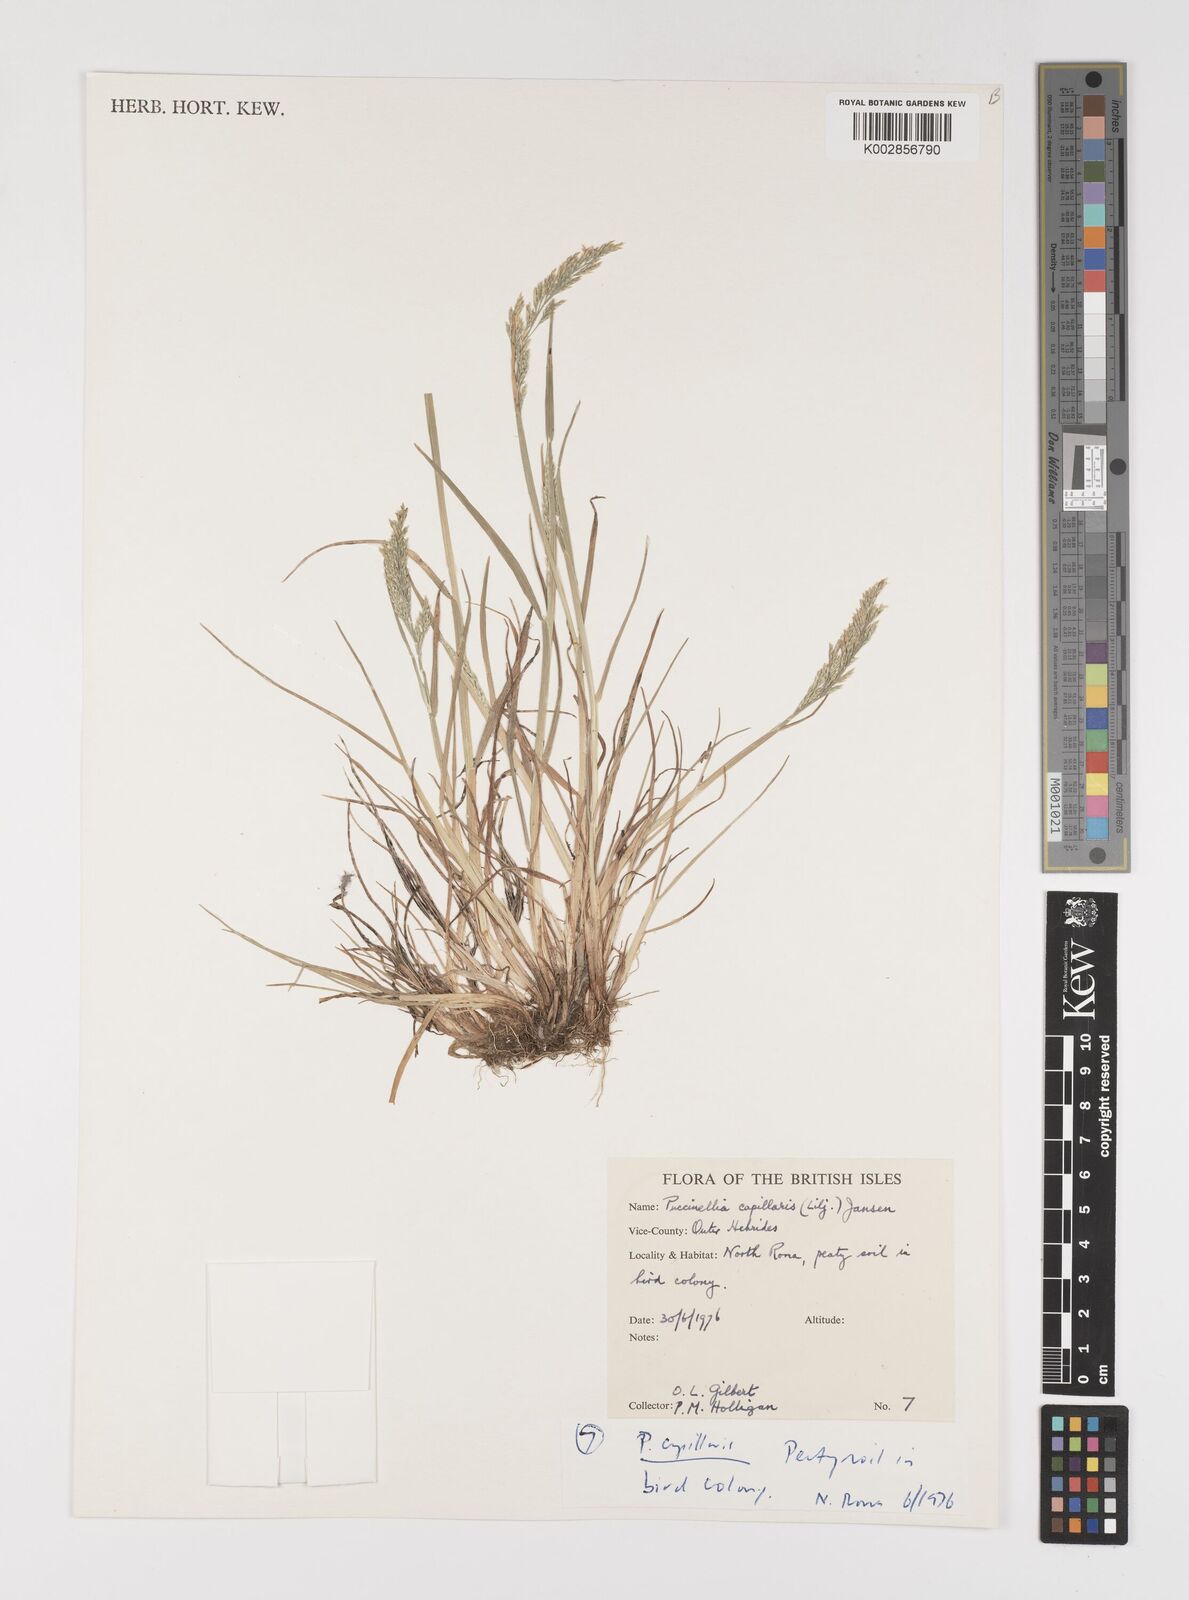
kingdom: Plantae
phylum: Tracheophyta
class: Liliopsida
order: Poales
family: Poaceae
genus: Puccinellia
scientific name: Puccinellia distans
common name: Weeping alkaligrass
